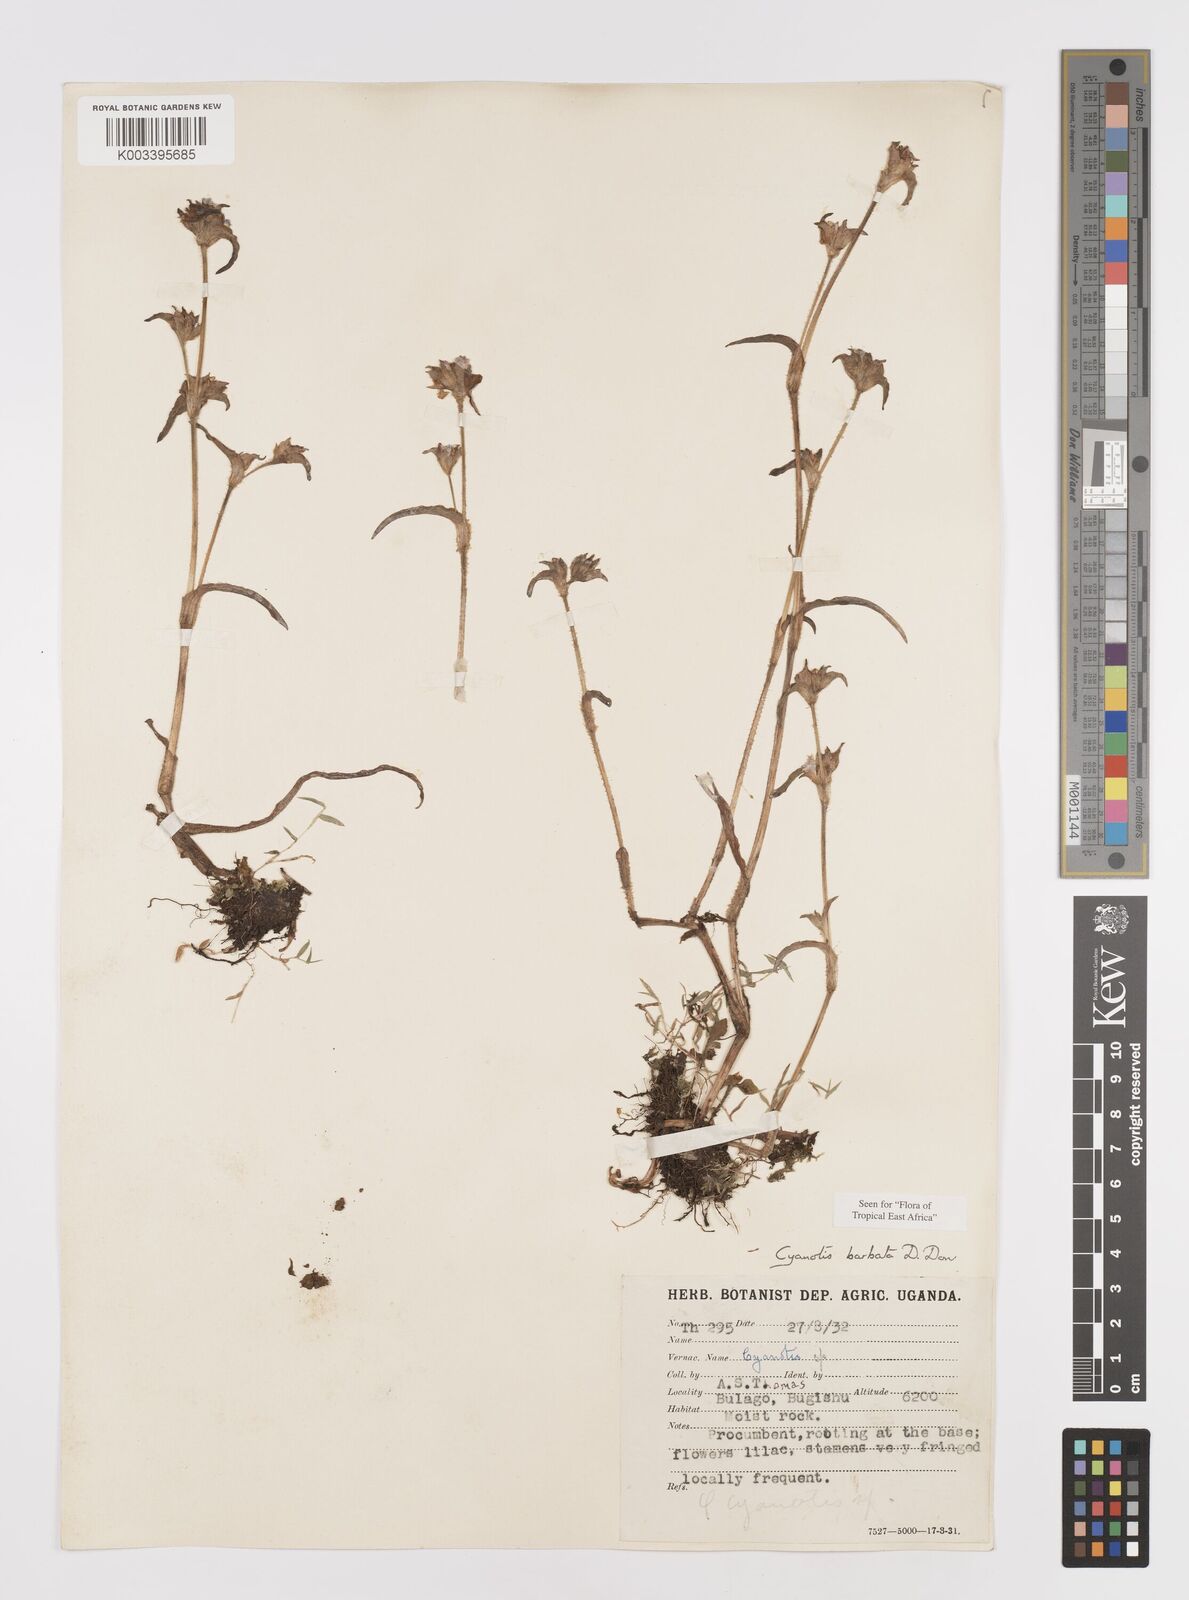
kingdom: Plantae
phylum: Tracheophyta
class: Liliopsida
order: Commelinales
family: Commelinaceae
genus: Cyanotis
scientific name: Cyanotis vaga
